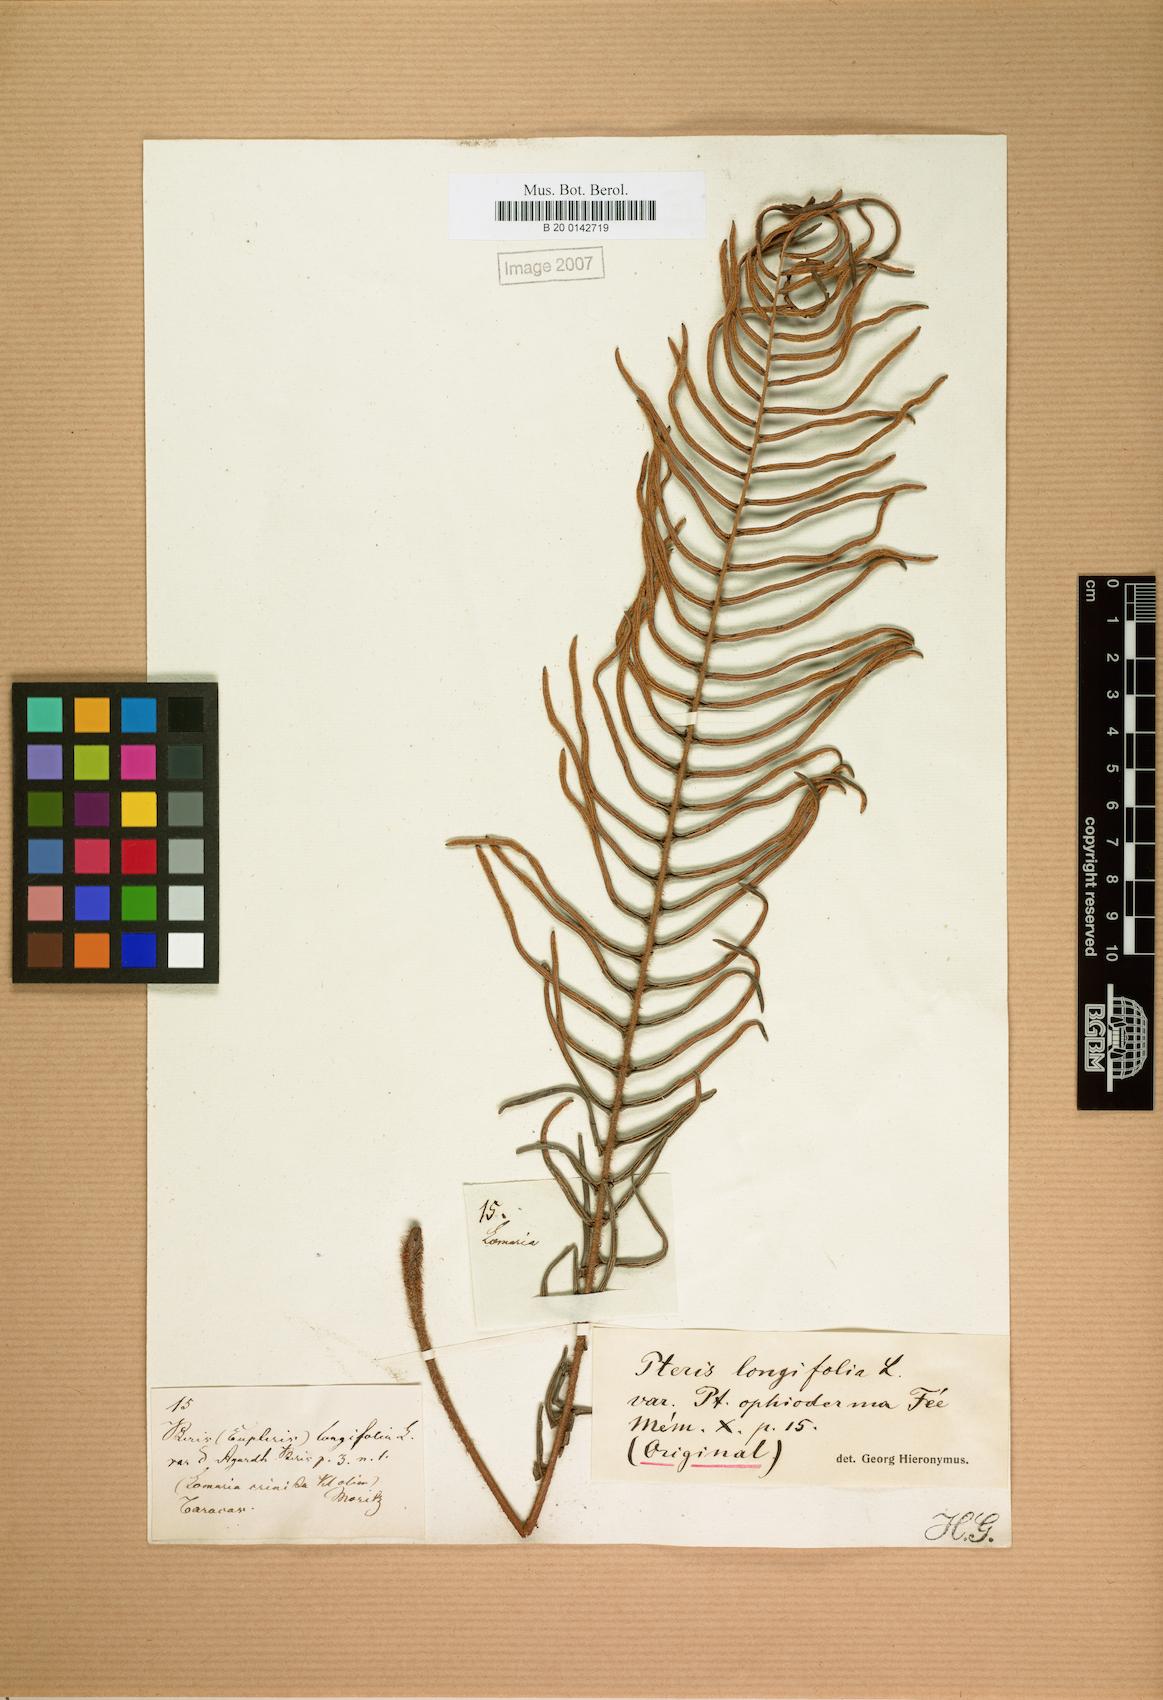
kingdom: Plantae
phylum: Tracheophyta
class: Polypodiopsida
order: Polypodiales
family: Pteridaceae
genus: Pteris
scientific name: Pteris vittata
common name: Ladder brake
